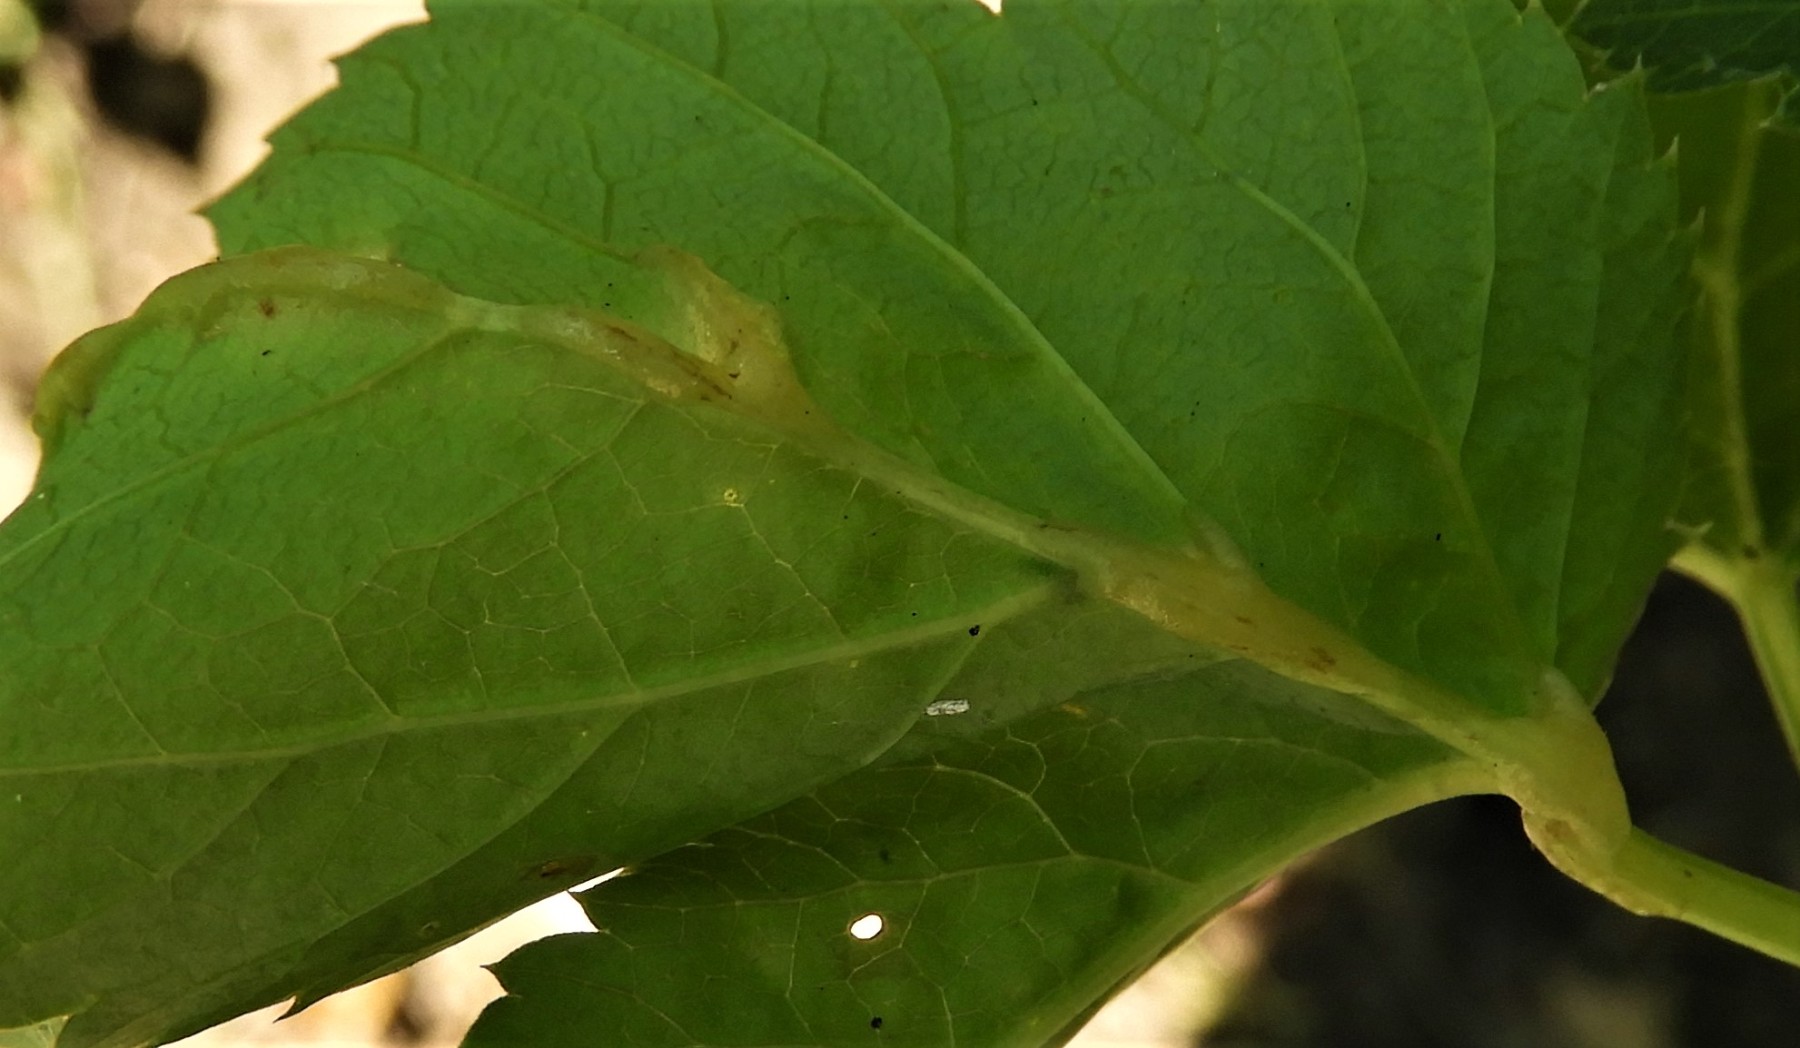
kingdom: Fungi
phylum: Ascomycota
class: Taphrinomycetes
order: Taphrinales
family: Taphrinaceae
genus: Protomyces
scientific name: Protomyces macrosporus
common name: skvalderkål-vablesæk
